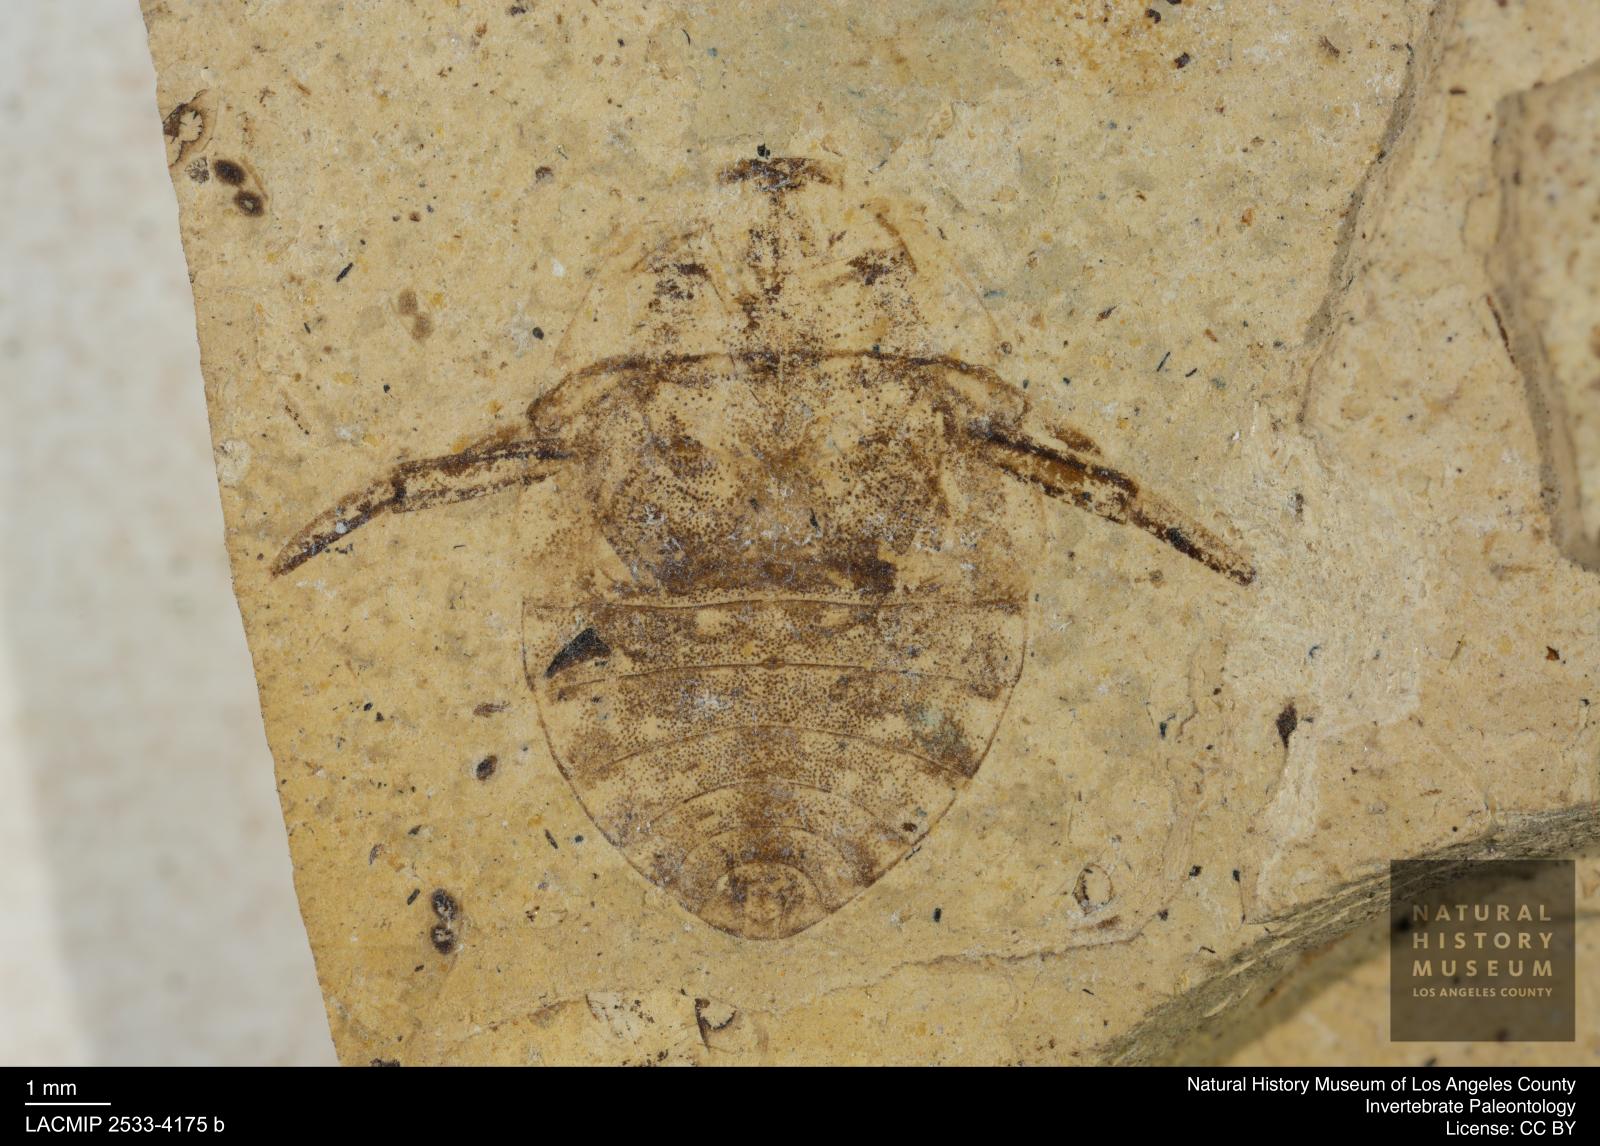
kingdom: Animalia
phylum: Arthropoda
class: Insecta
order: Hemiptera
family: Naucoridae
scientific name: Naucoridae
